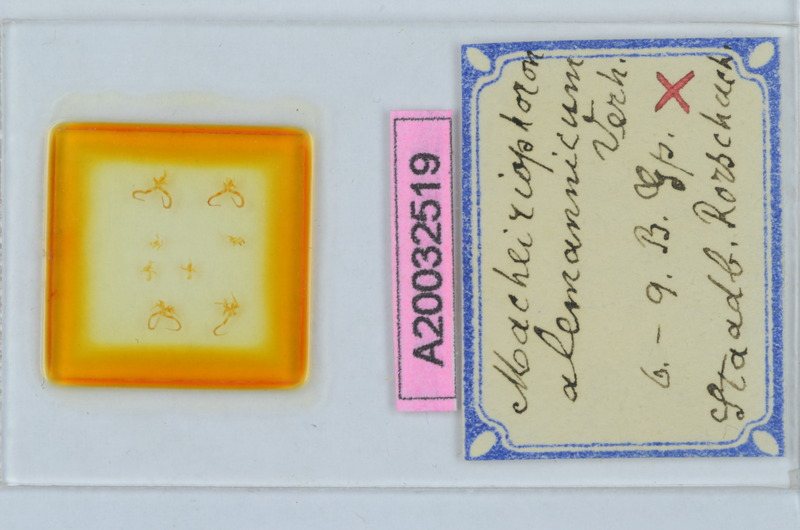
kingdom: Animalia
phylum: Arthropoda
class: Diplopoda
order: Chordeumatida
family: Craspedosomatidae
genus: Macheiriophoron
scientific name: Macheiriophoron alemannicum
